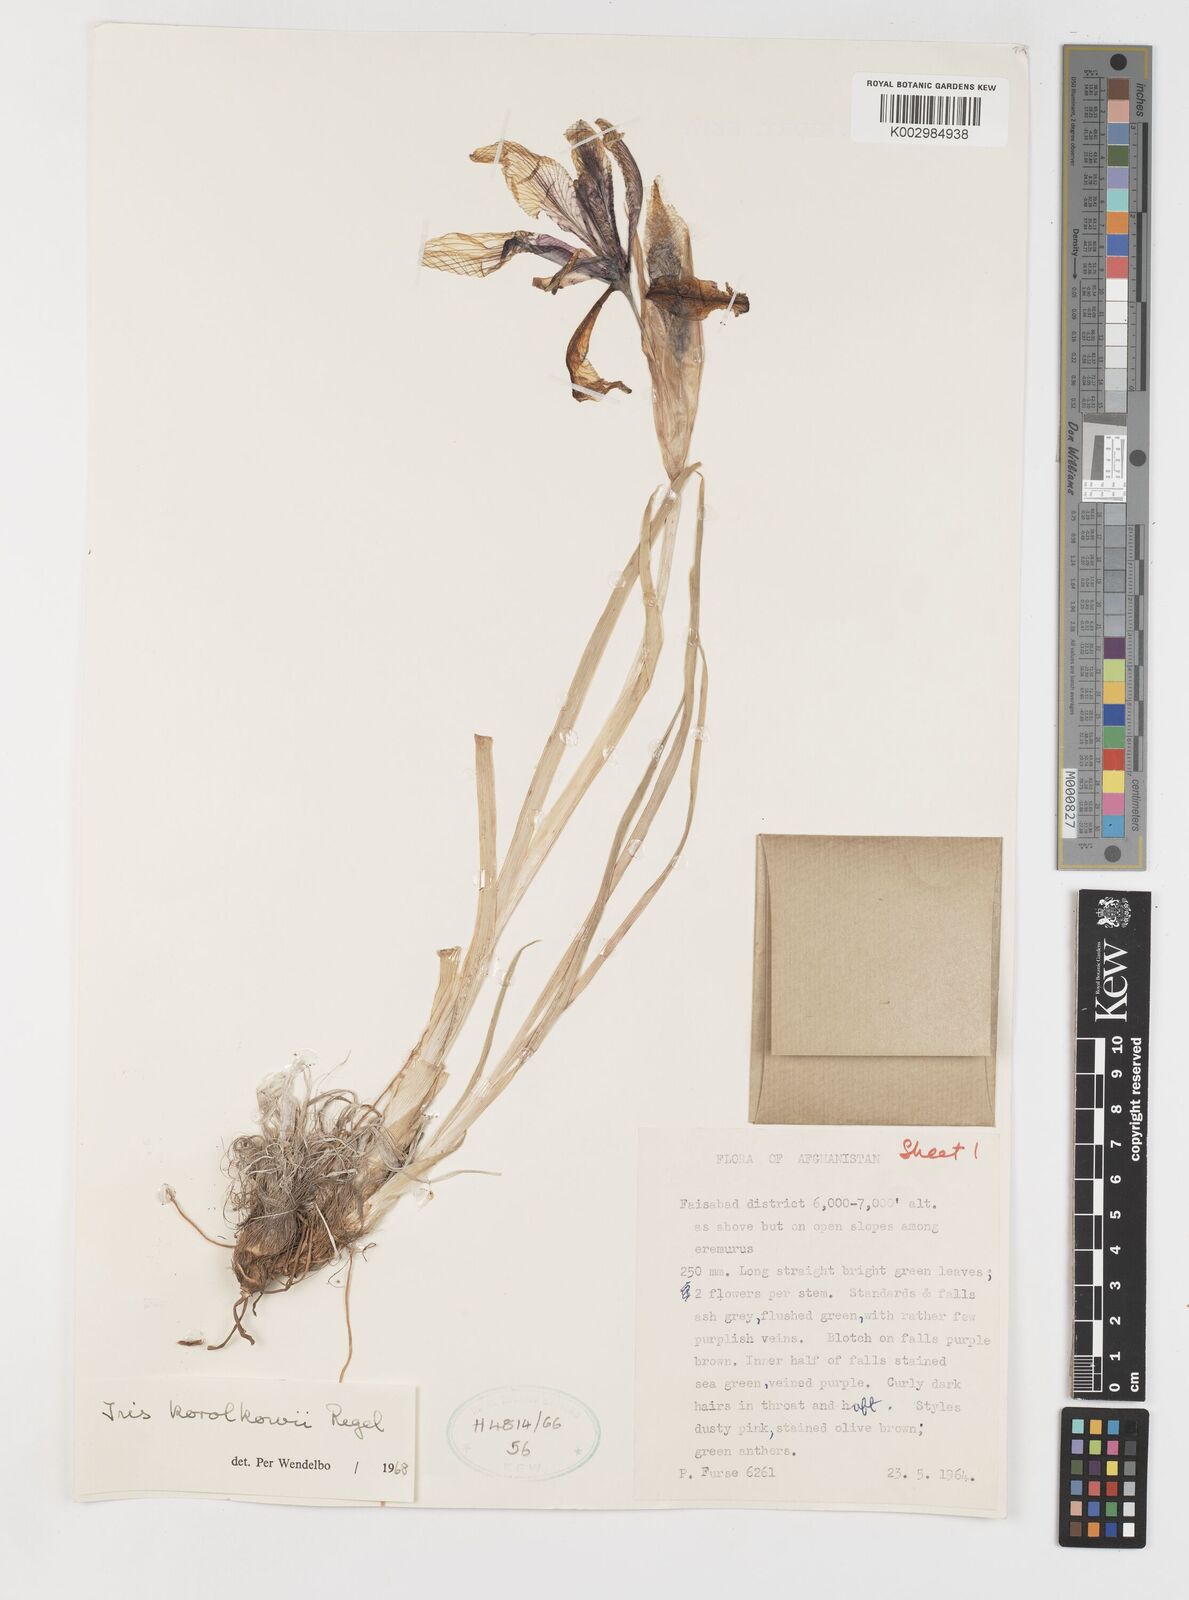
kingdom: Plantae
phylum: Tracheophyta
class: Liliopsida
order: Asparagales
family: Iridaceae
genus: Iris
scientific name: Iris korolkowii
